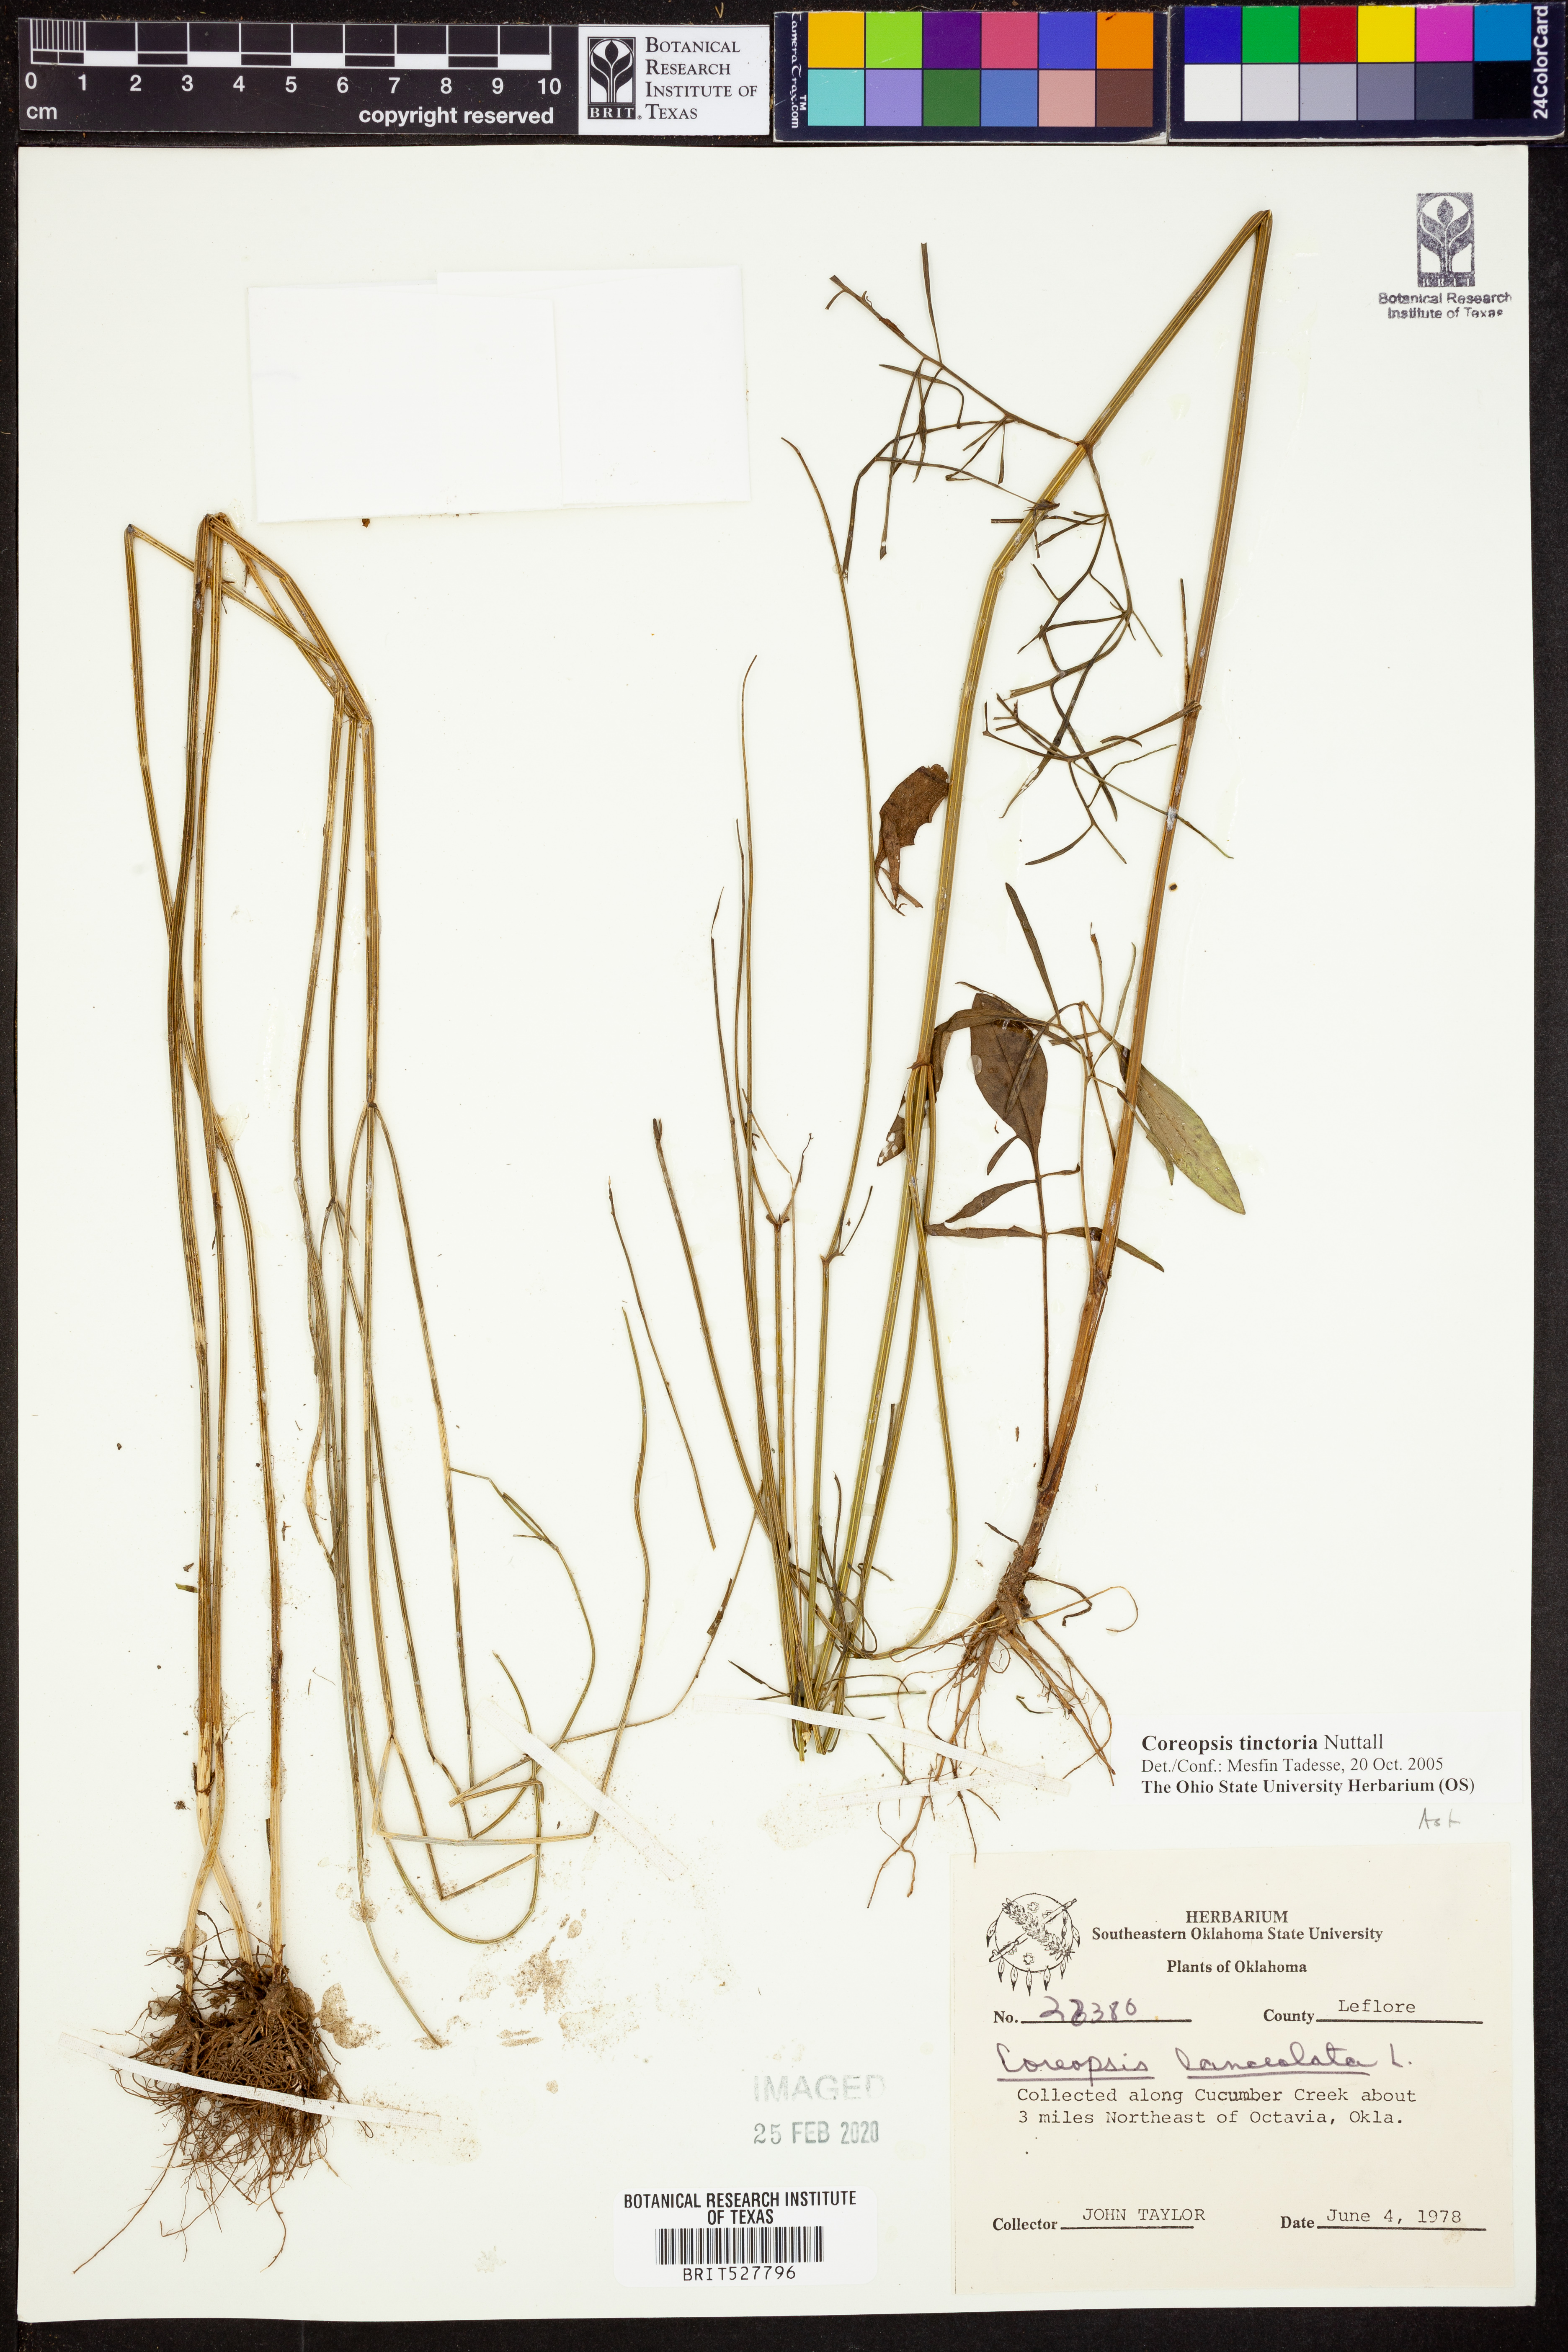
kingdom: Plantae
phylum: Tracheophyta
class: Magnoliopsida
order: Asterales
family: Asteraceae
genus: Coreopsis
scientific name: Coreopsis tinctoria
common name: Garden tickseed
